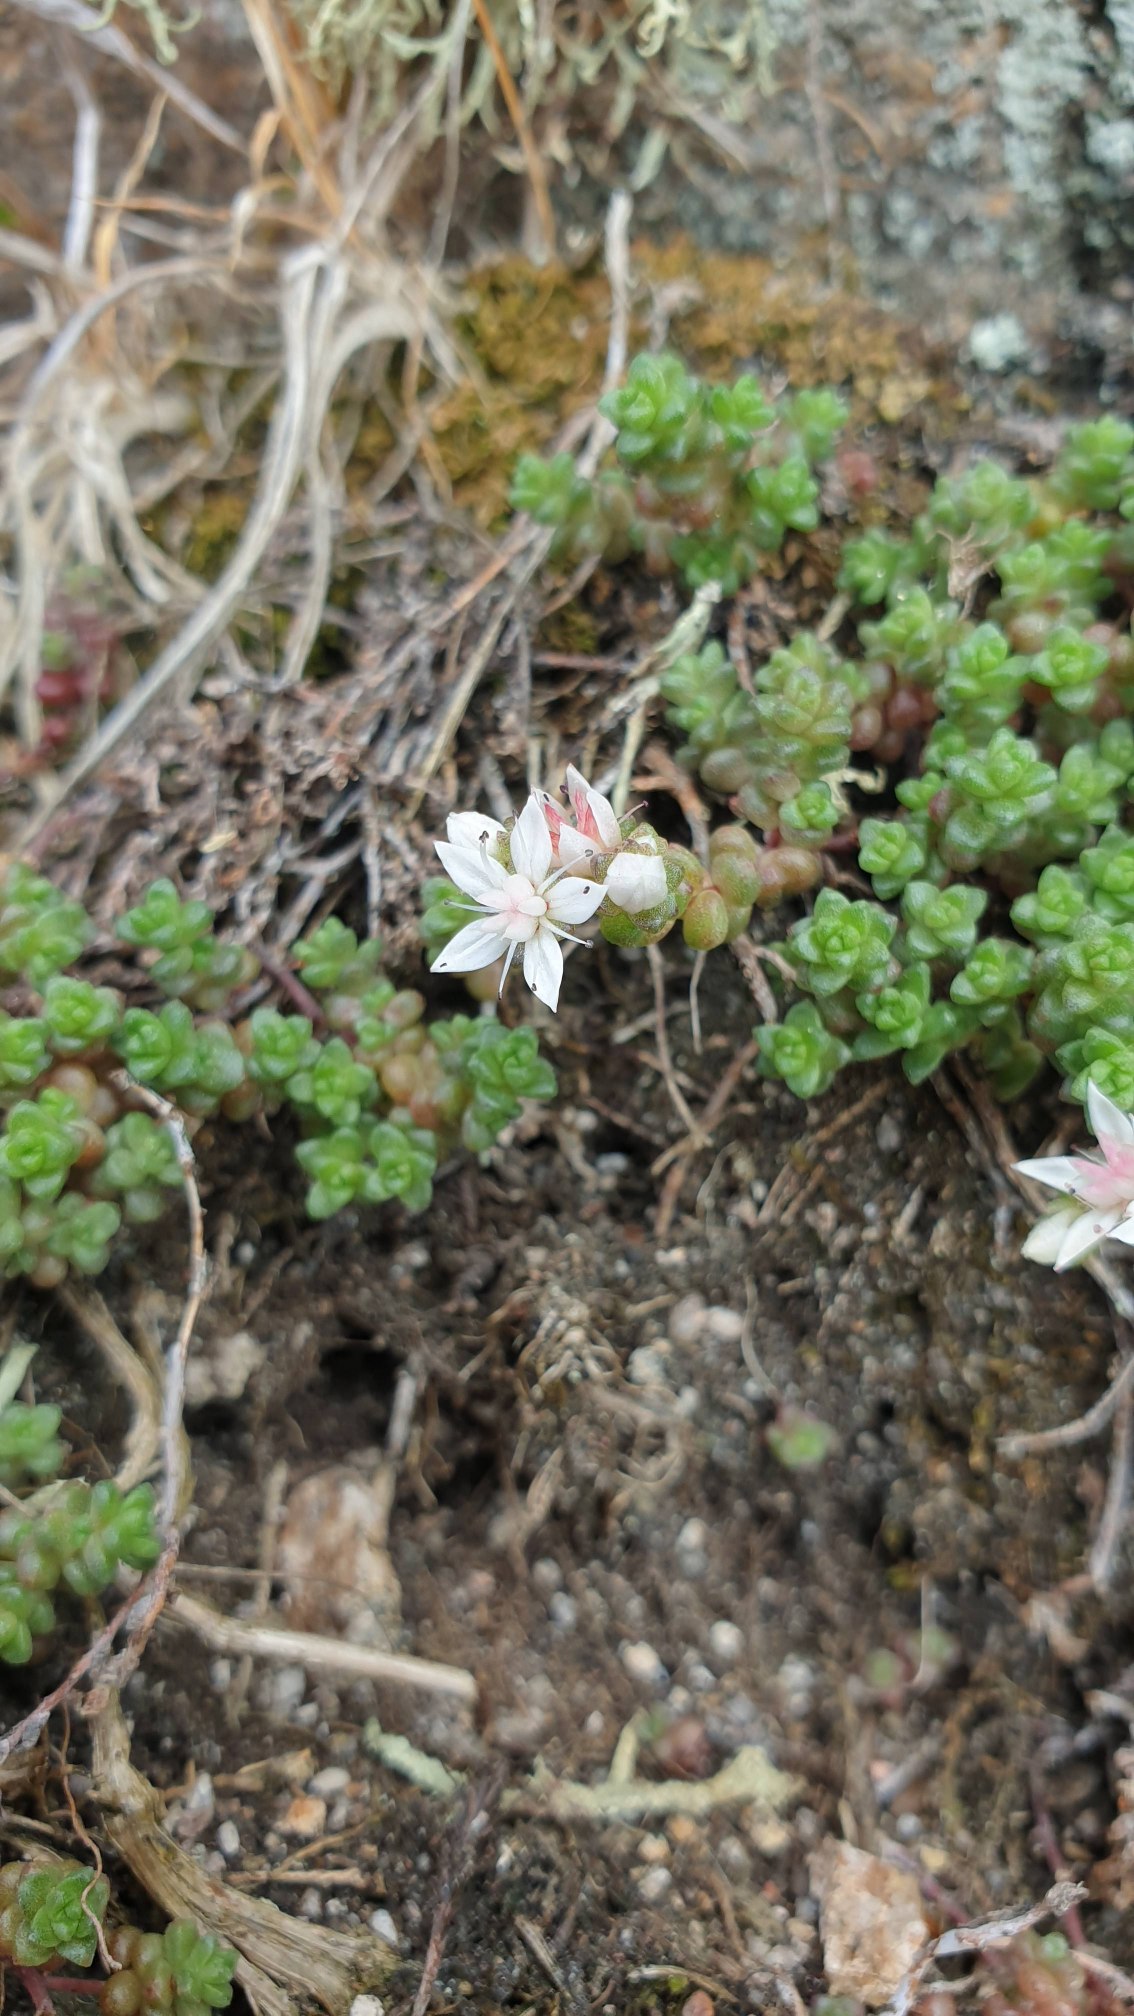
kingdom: Plantae
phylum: Tracheophyta
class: Magnoliopsida
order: Saxifragales
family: Crassulaceae
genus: Sedum
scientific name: Sedum anglicum
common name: Engelsk stenurt
